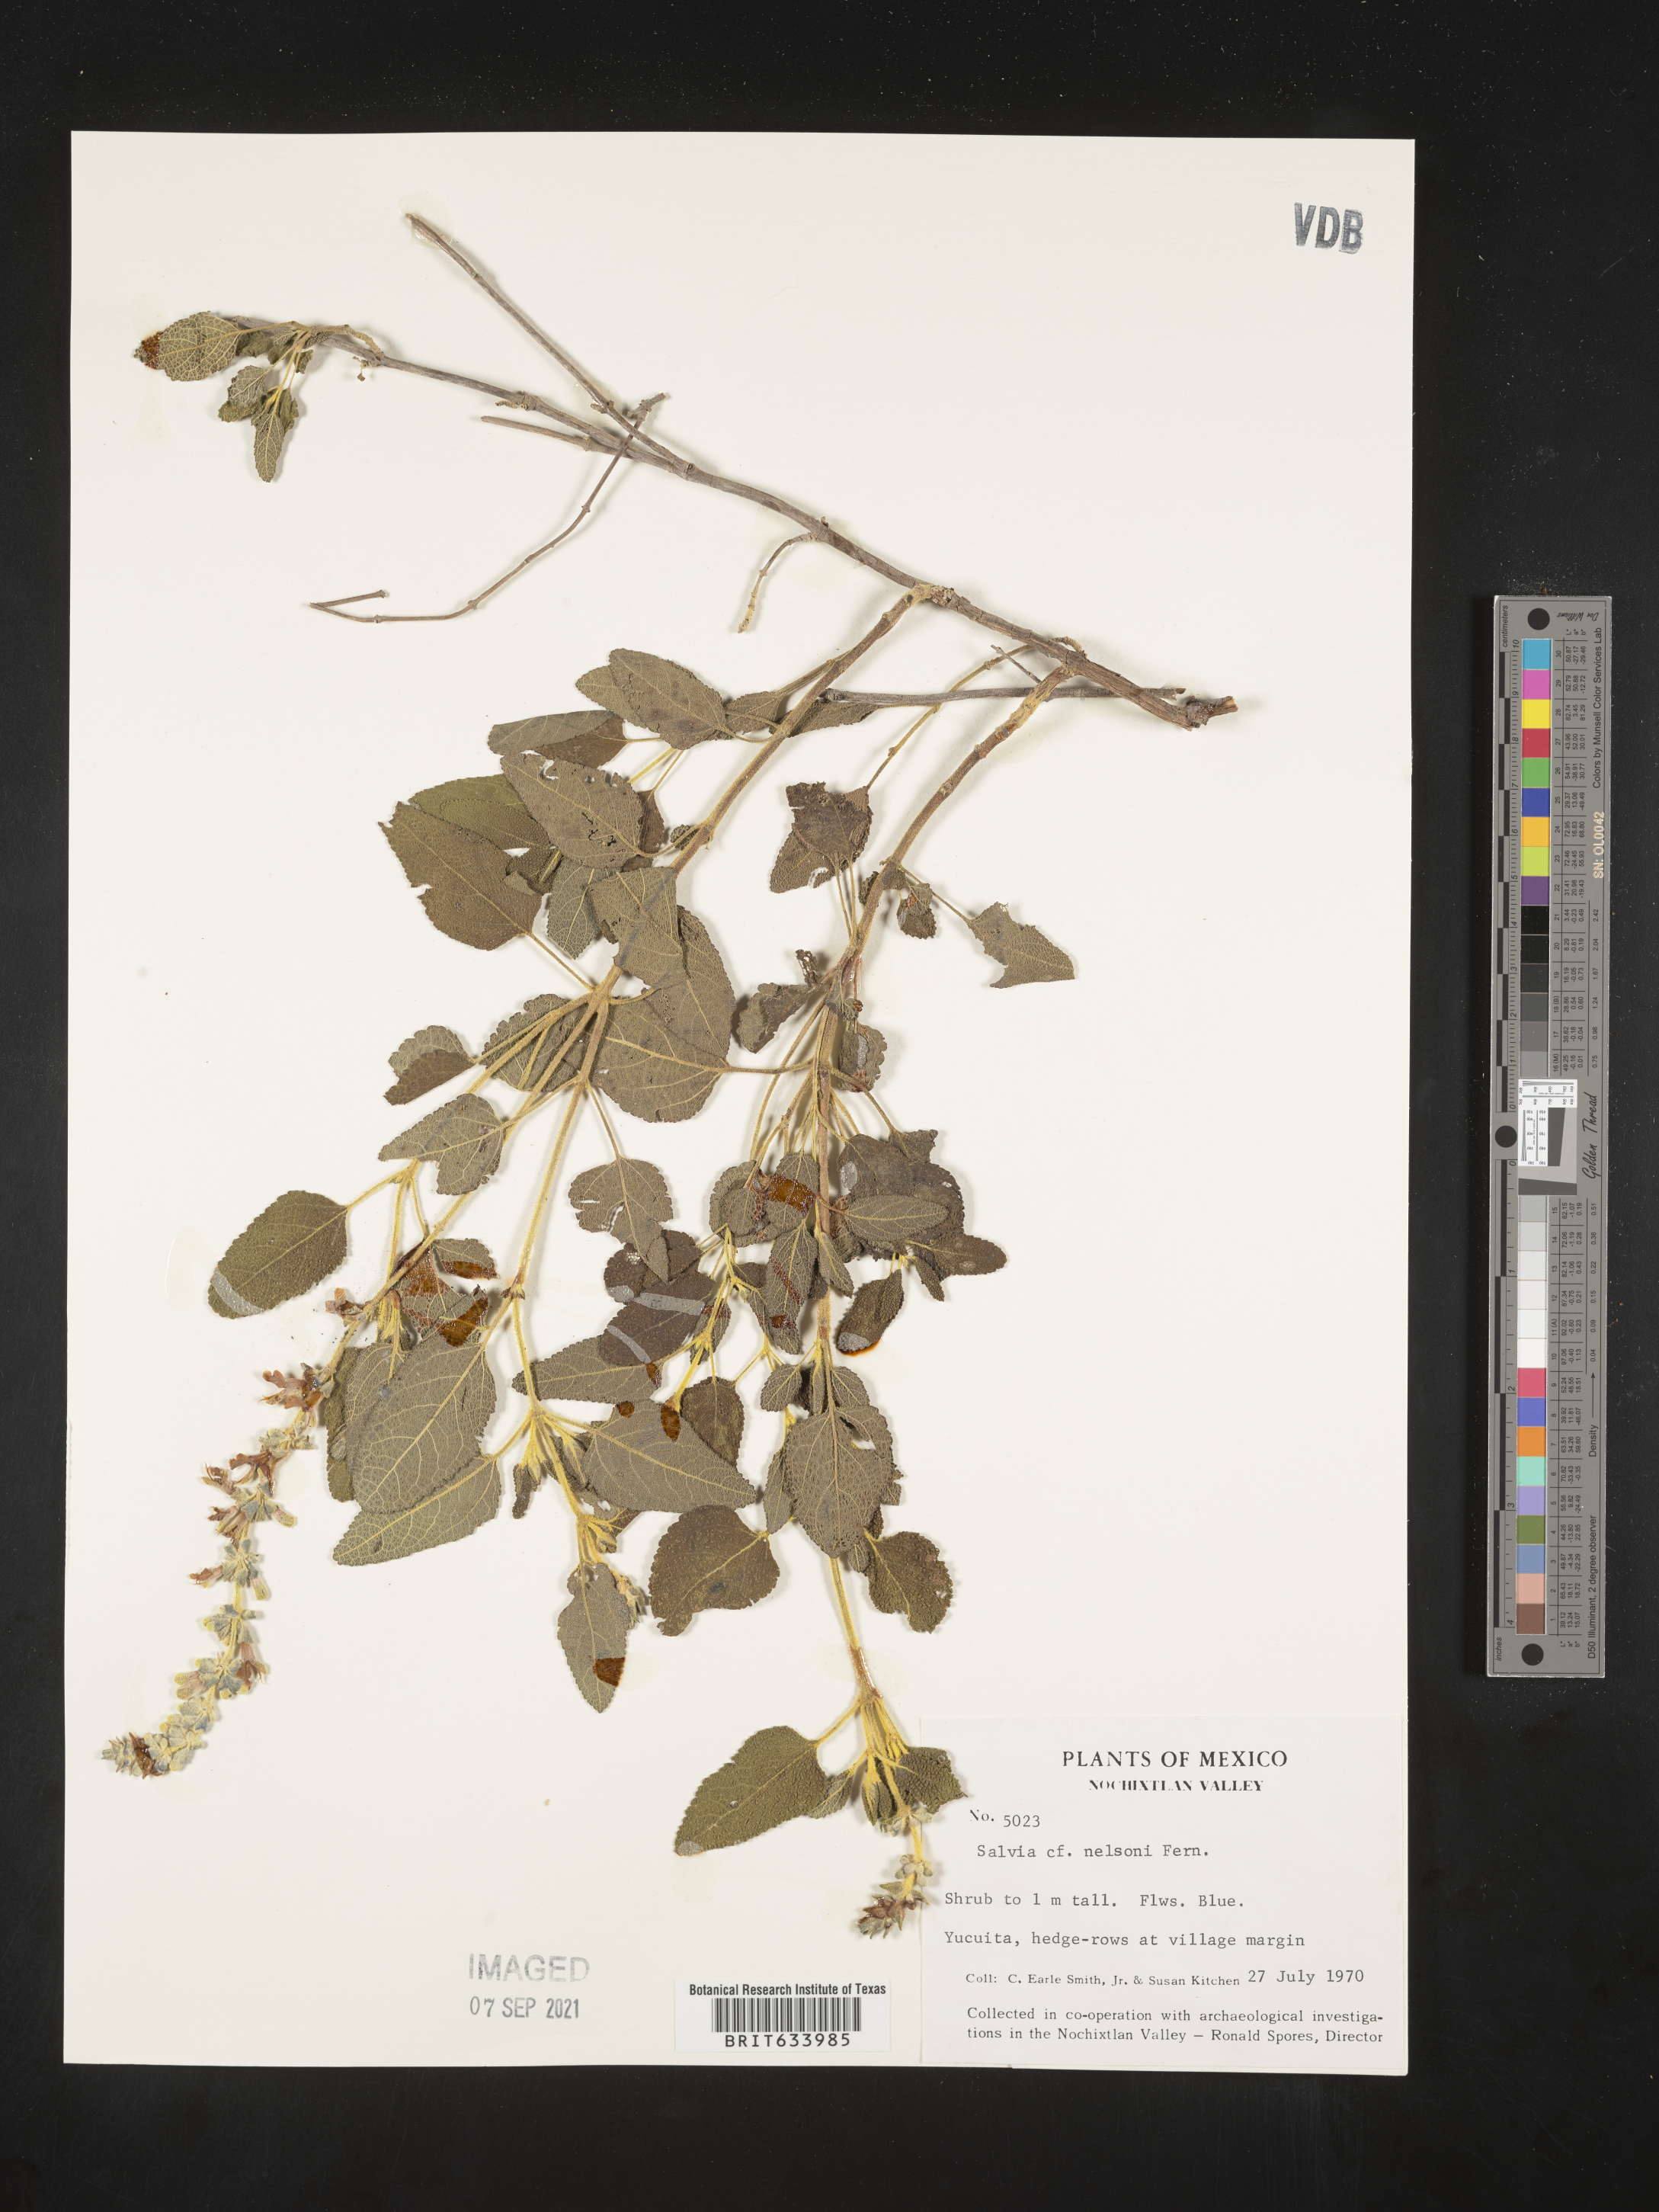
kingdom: Plantae
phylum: Tracheophyta
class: Magnoliopsida
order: Lamiales
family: Lamiaceae
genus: Salvia
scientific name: Salvia
